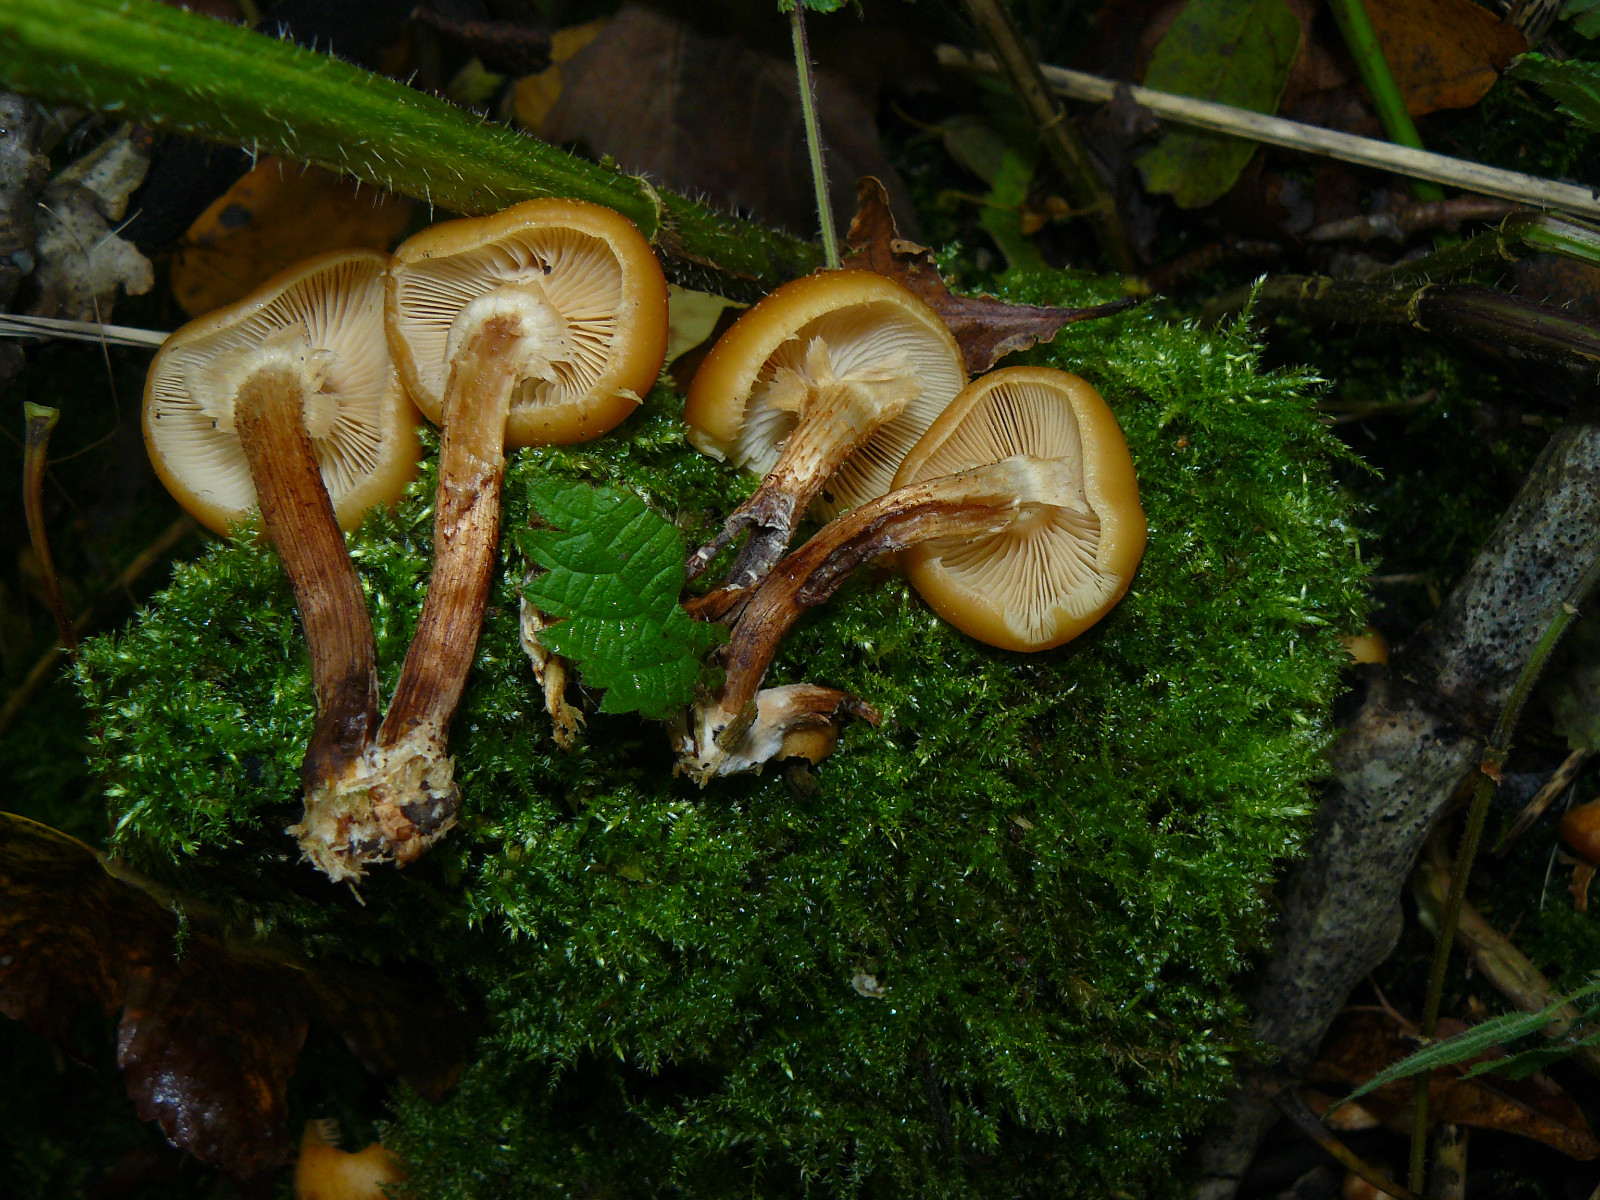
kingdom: Fungi
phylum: Basidiomycota
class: Agaricomycetes
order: Agaricales
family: Strophariaceae
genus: Kuehneromyces
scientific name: Kuehneromyces mutabilis
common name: foranderlig skælhat
